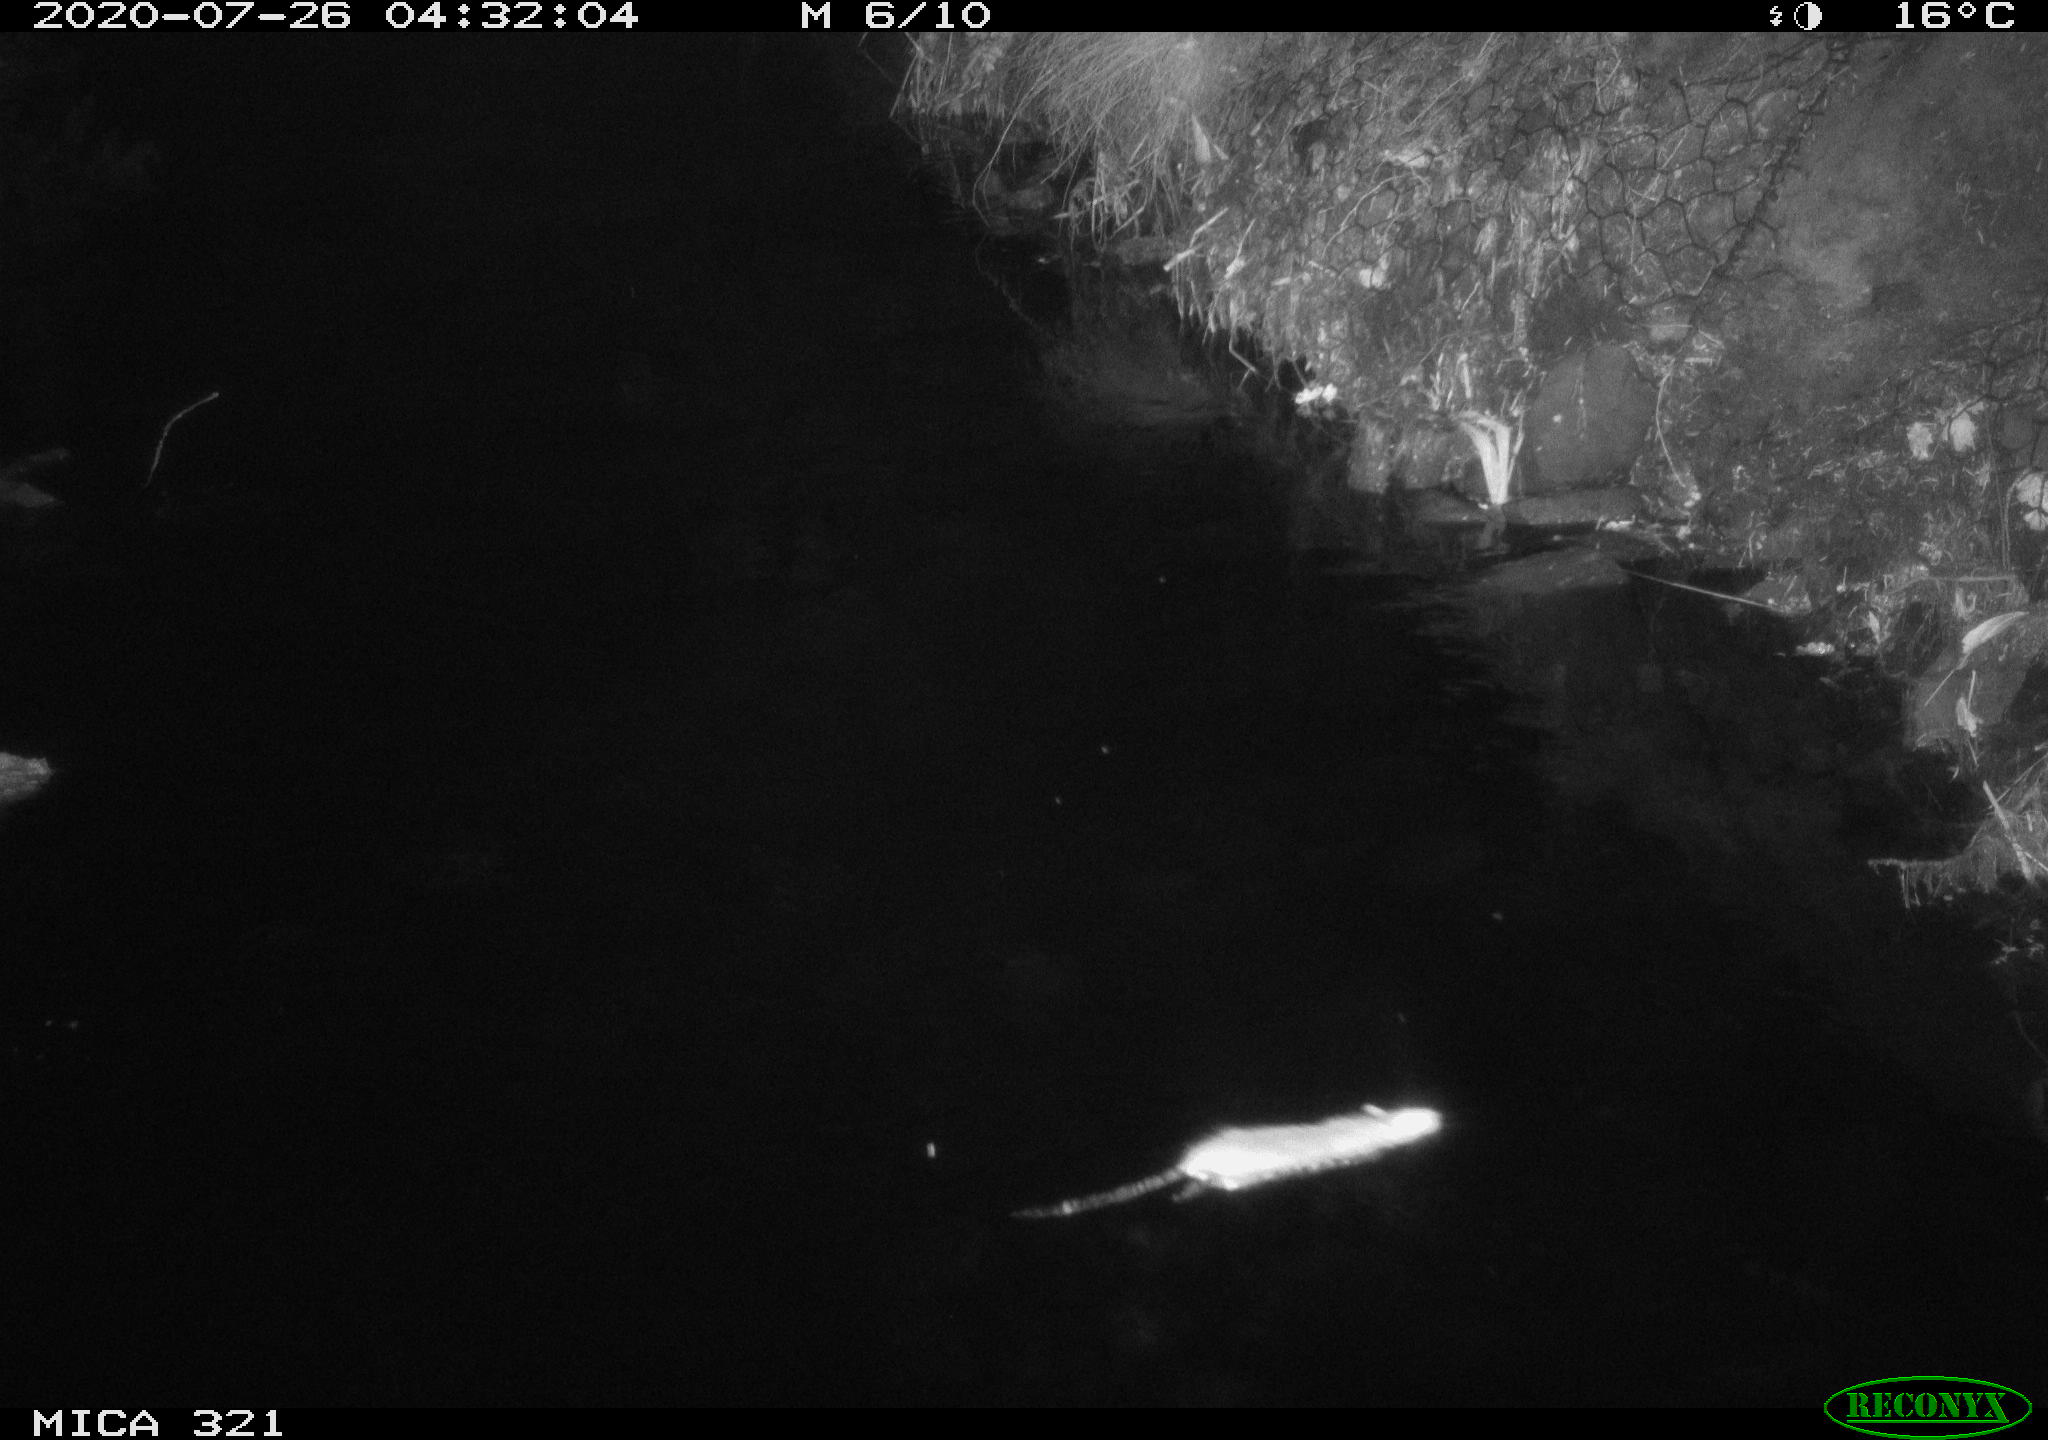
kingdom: Animalia
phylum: Chordata
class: Mammalia
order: Rodentia
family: Muridae
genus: Rattus
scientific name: Rattus norvegicus
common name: Brown rat
